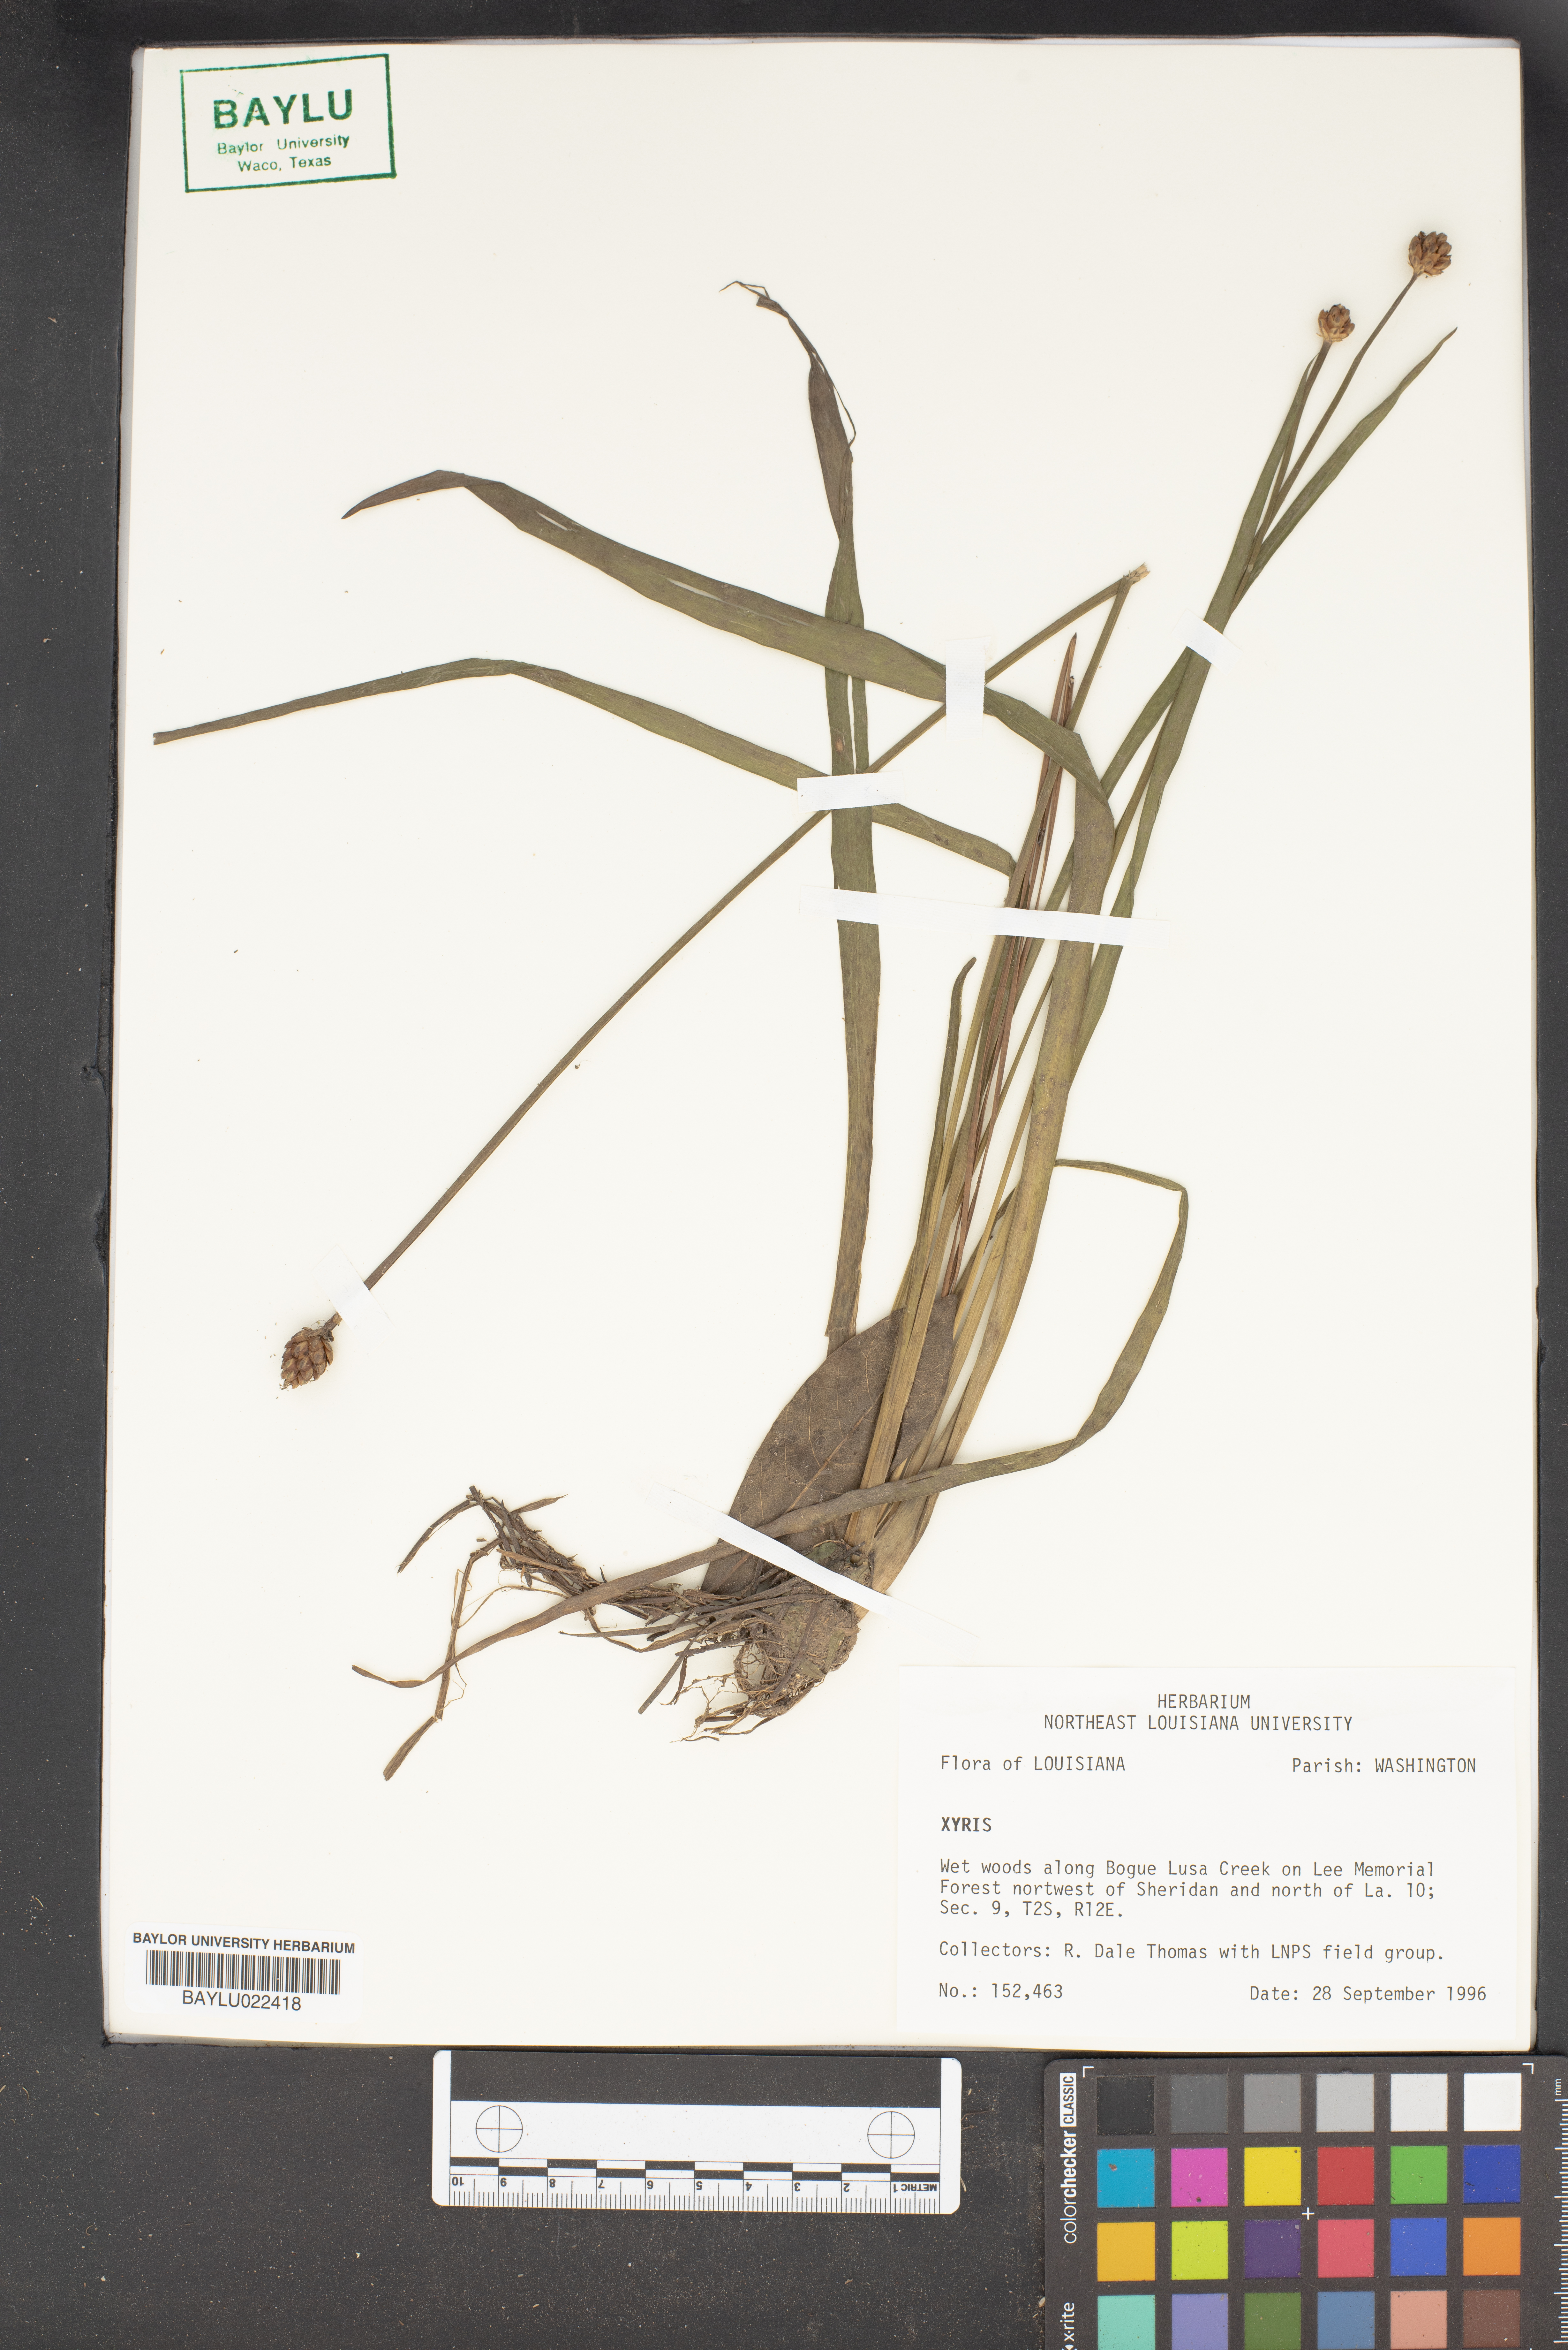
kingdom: Plantae
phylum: Tracheophyta
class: Liliopsida
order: Poales
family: Xyridaceae
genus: Xyris
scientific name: Xyris
